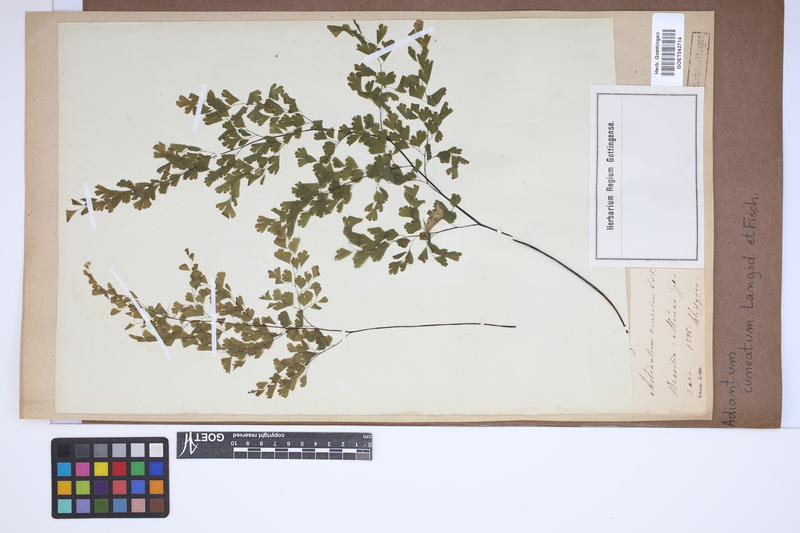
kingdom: Plantae
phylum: Tracheophyta
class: Polypodiopsida
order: Polypodiales
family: Pteridaceae
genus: Adiantum
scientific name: Adiantum raddianum
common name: Delta maidenhair fern
